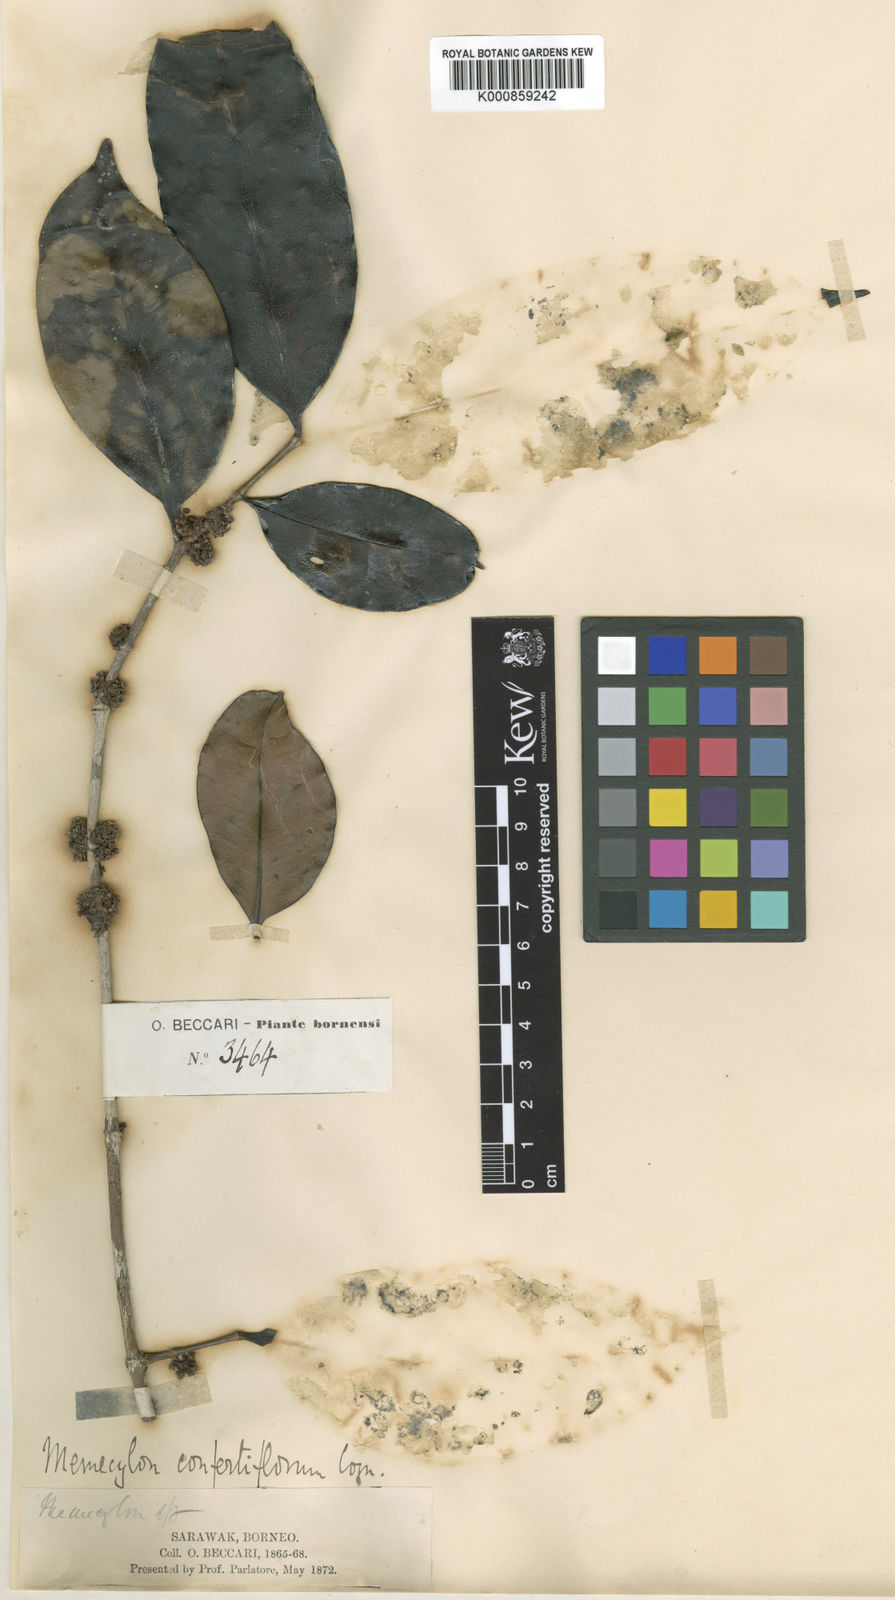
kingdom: Plantae
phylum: Tracheophyta
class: Magnoliopsida
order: Myrtales
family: Melastomataceae
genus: Memecylon
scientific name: Memecylon confertiflorum
